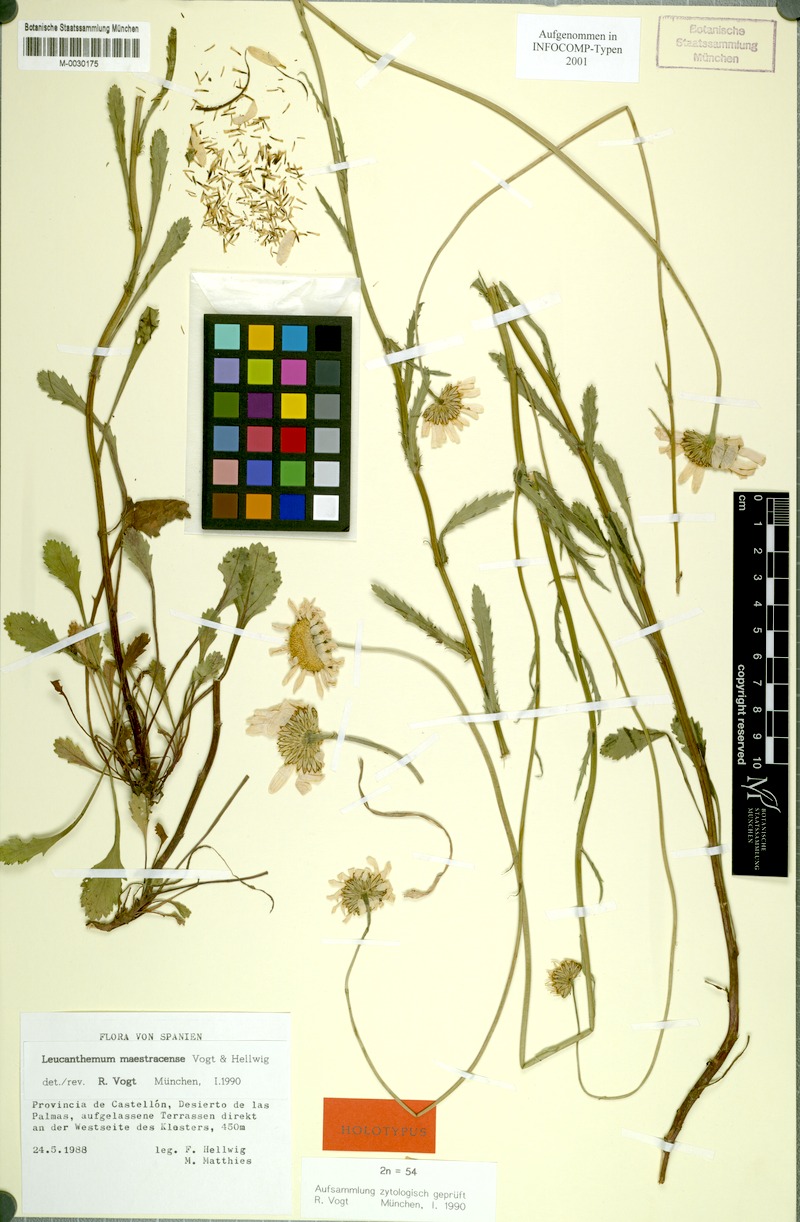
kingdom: Plantae
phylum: Tracheophyta
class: Magnoliopsida
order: Asterales
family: Asteraceae
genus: Leucanthemum
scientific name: Leucanthemum maestracense
